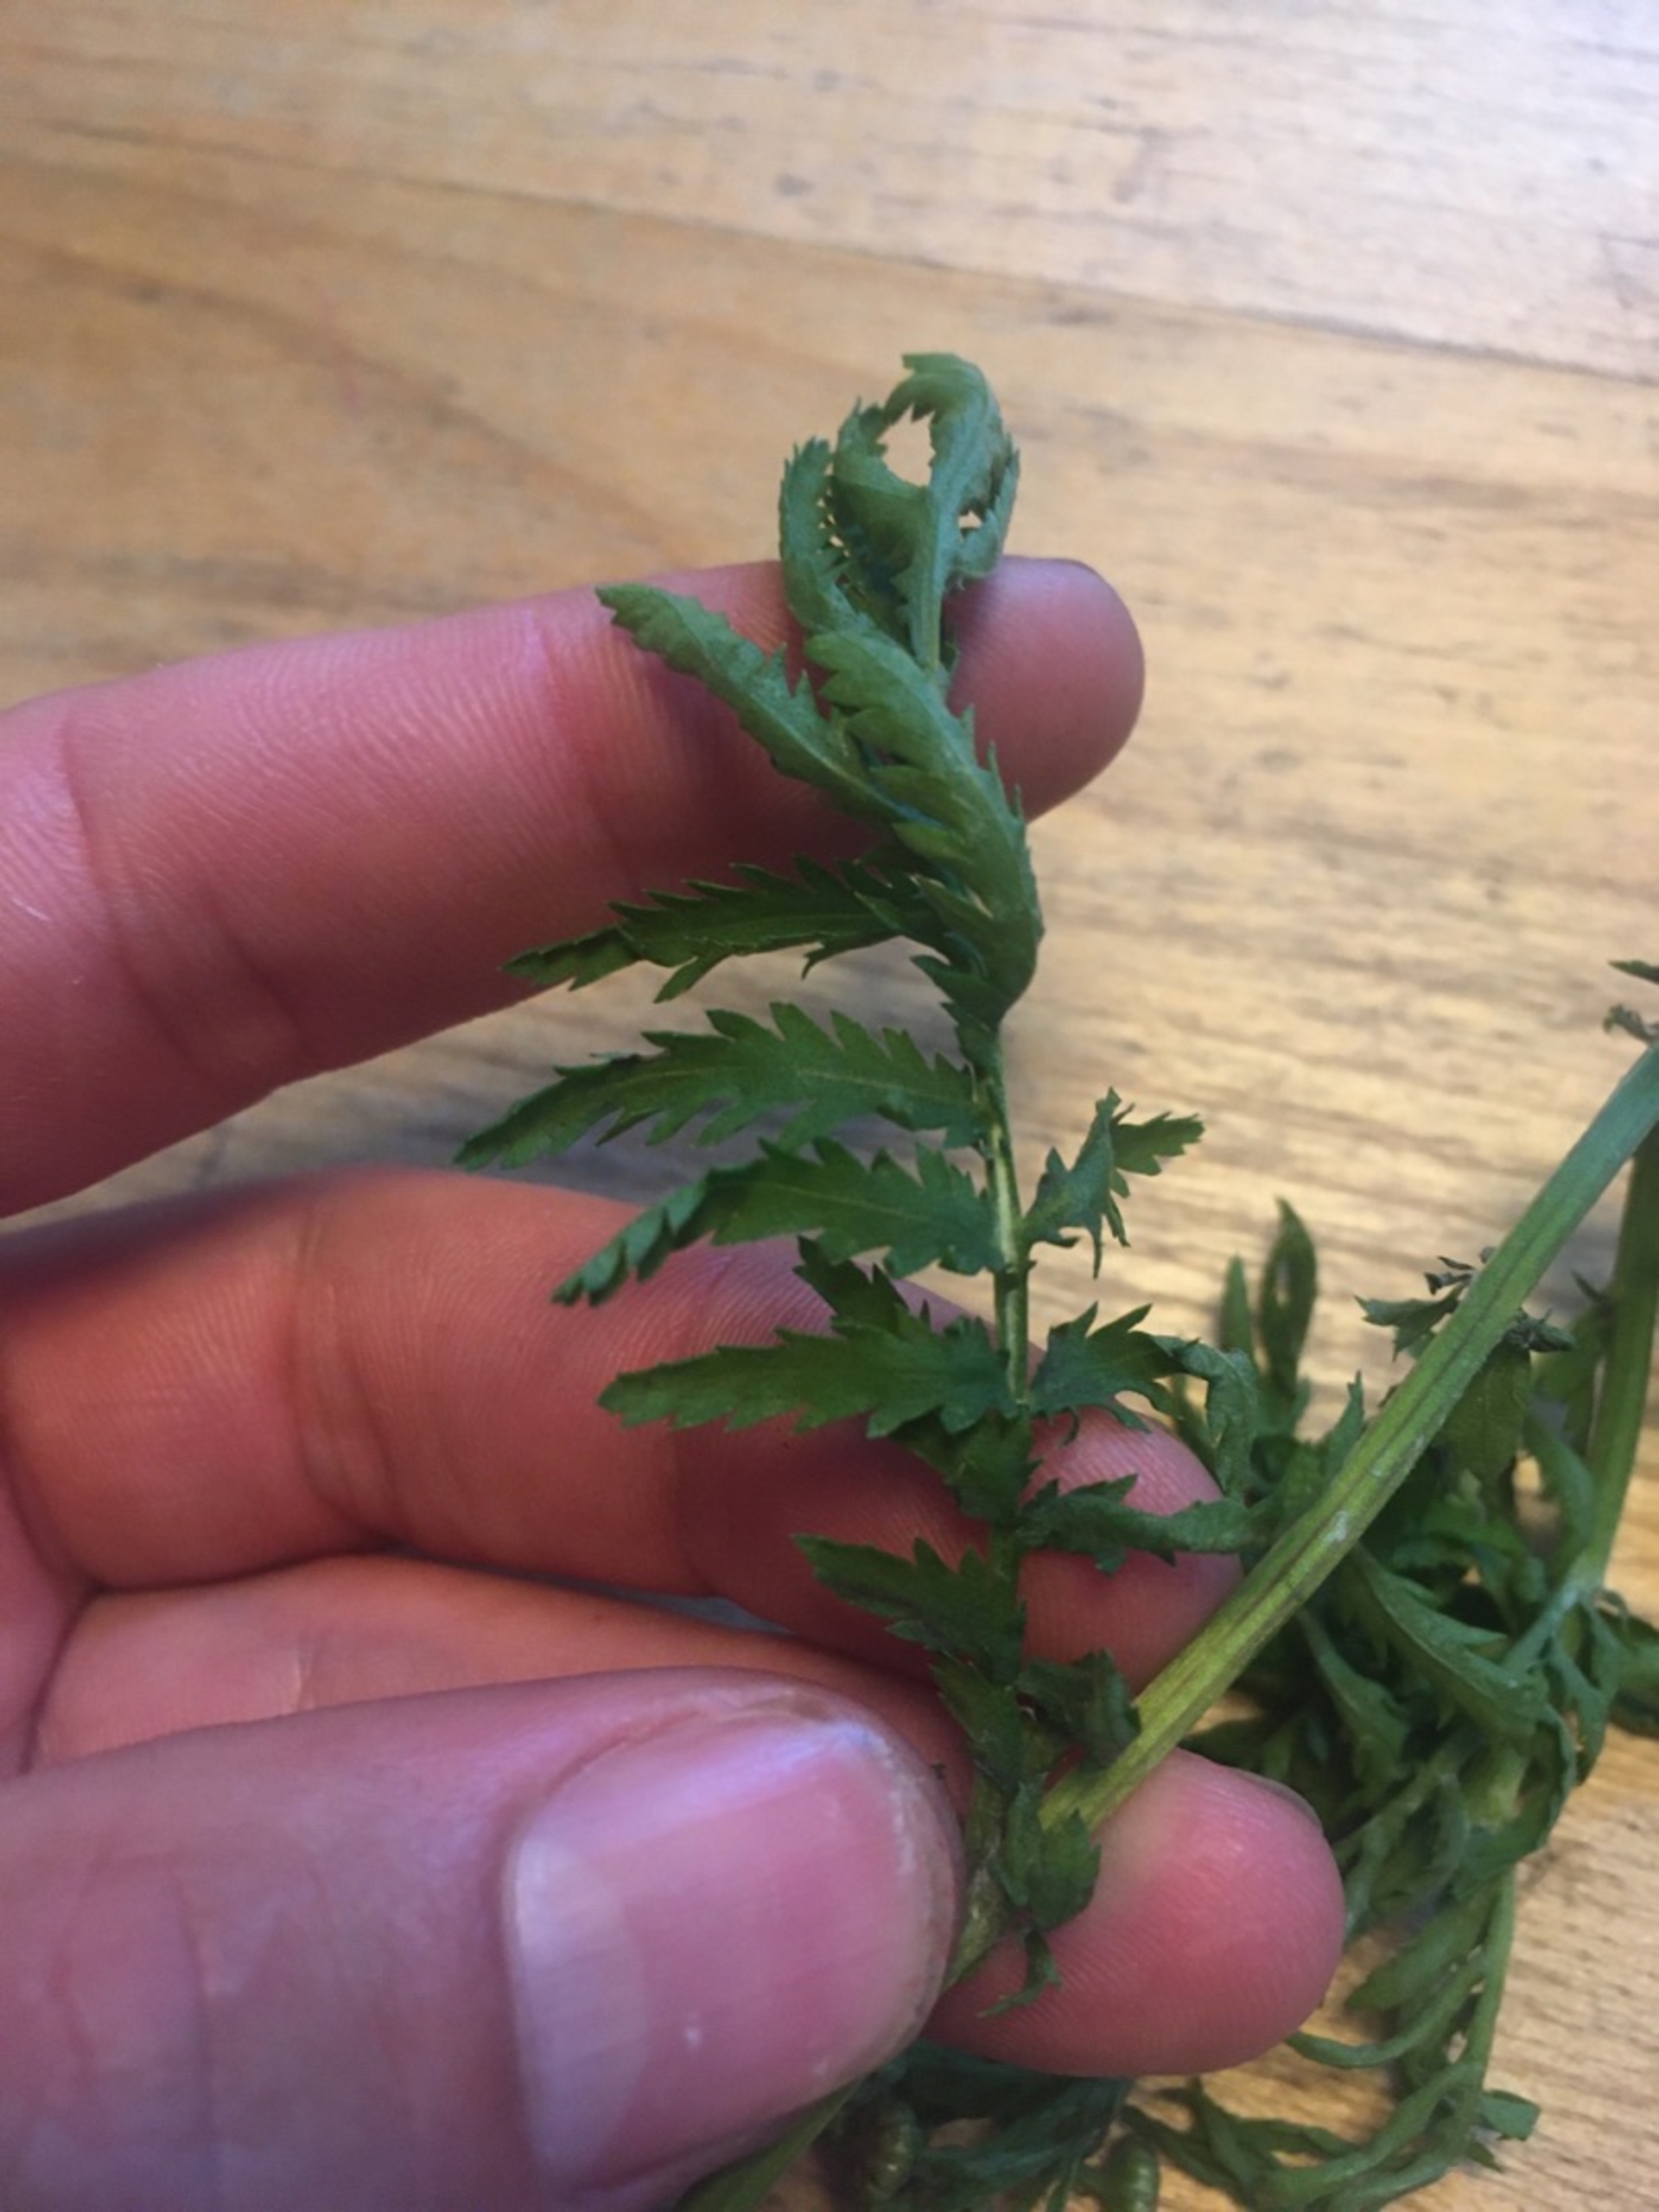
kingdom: Plantae
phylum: Tracheophyta
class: Magnoliopsida
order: Asterales
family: Asteraceae
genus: Tanacetum
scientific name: Tanacetum vulgare
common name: Rejnfan
